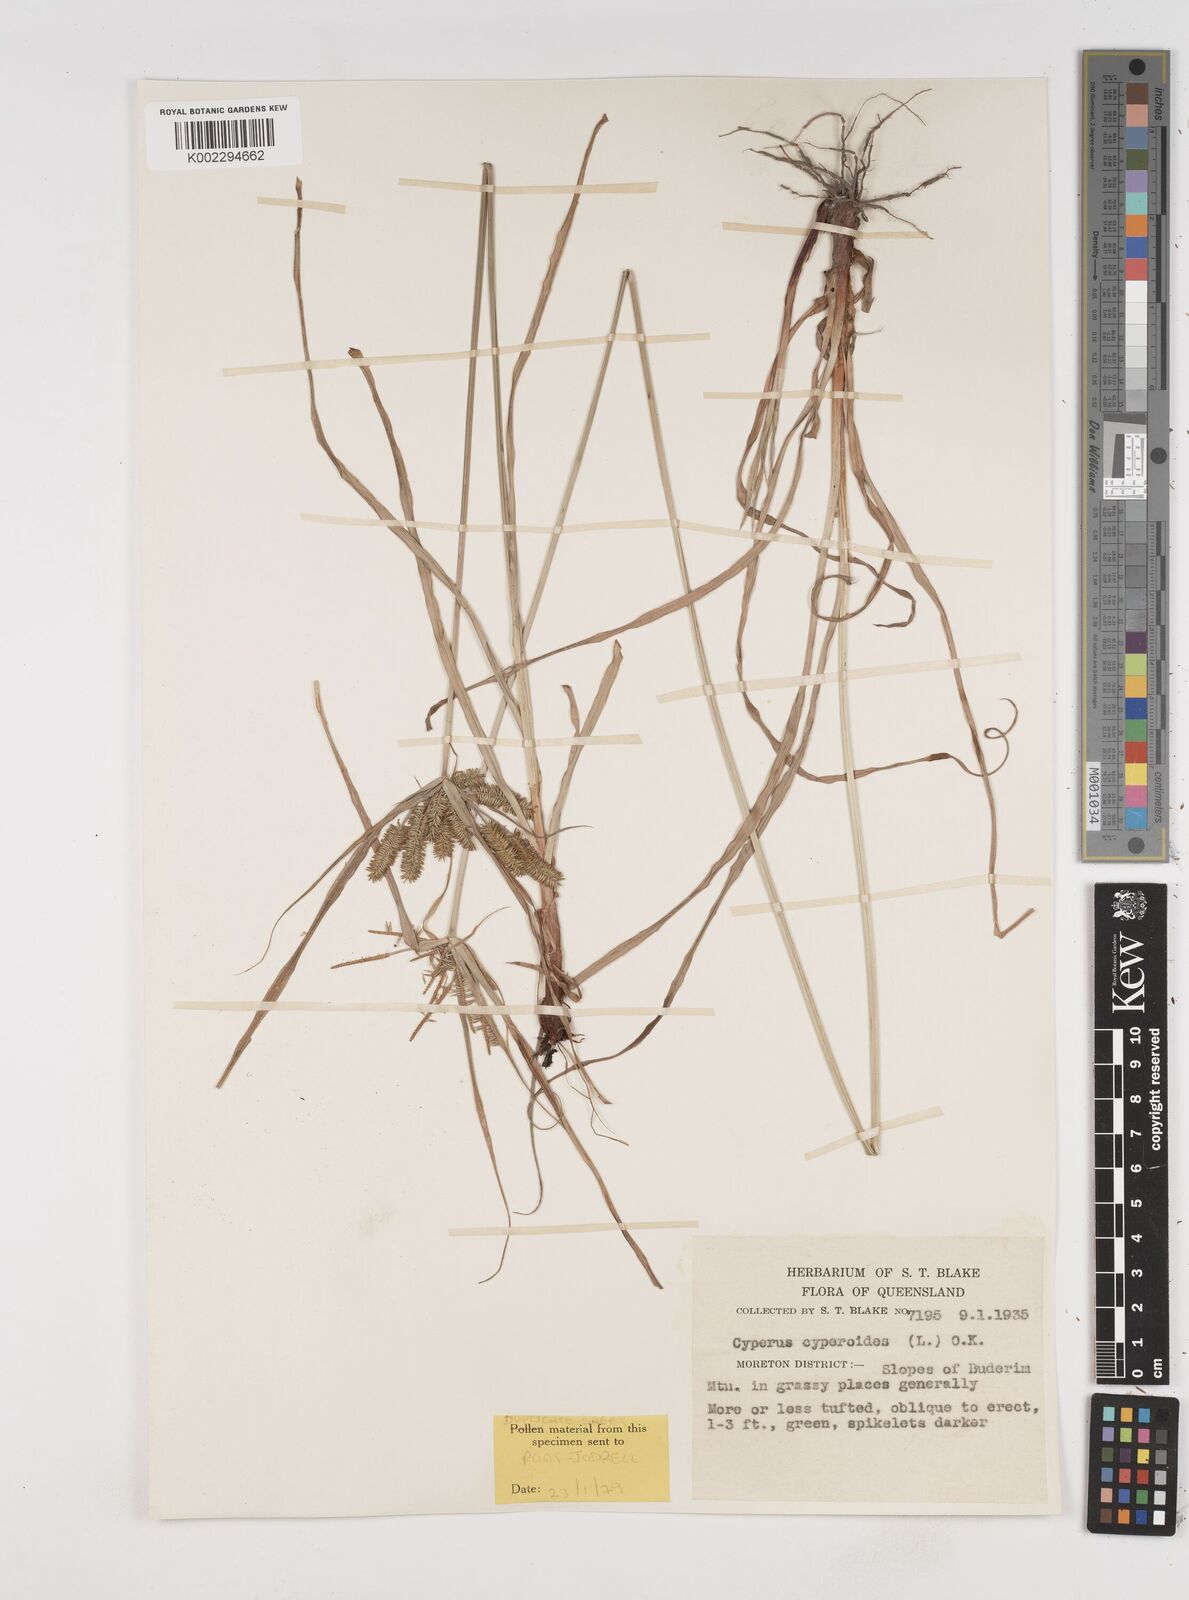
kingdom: Plantae
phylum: Tracheophyta
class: Liliopsida
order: Poales
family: Cyperaceae
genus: Cyperus
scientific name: Cyperus cyperoides
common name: Pacific island flat sedge
